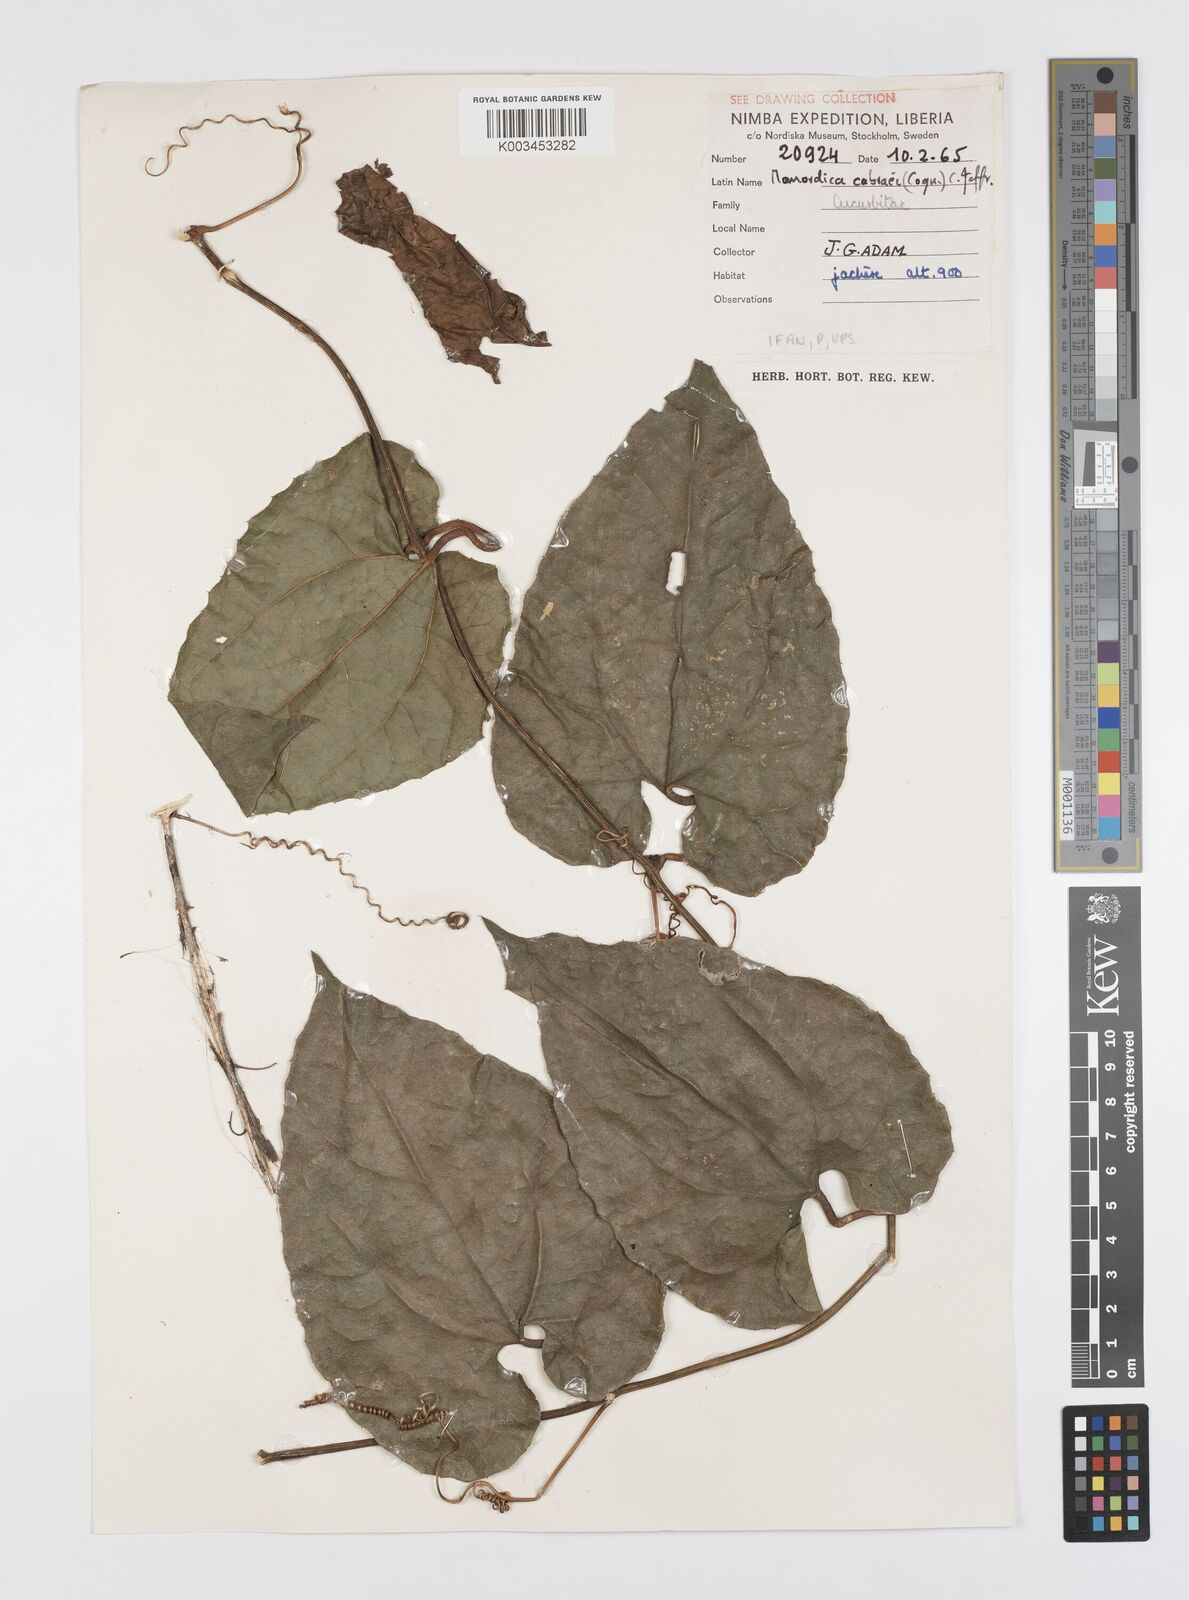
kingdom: Plantae
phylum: Tracheophyta
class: Magnoliopsida
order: Cucurbitales
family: Cucurbitaceae
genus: Momordica
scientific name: Momordica cabrae
